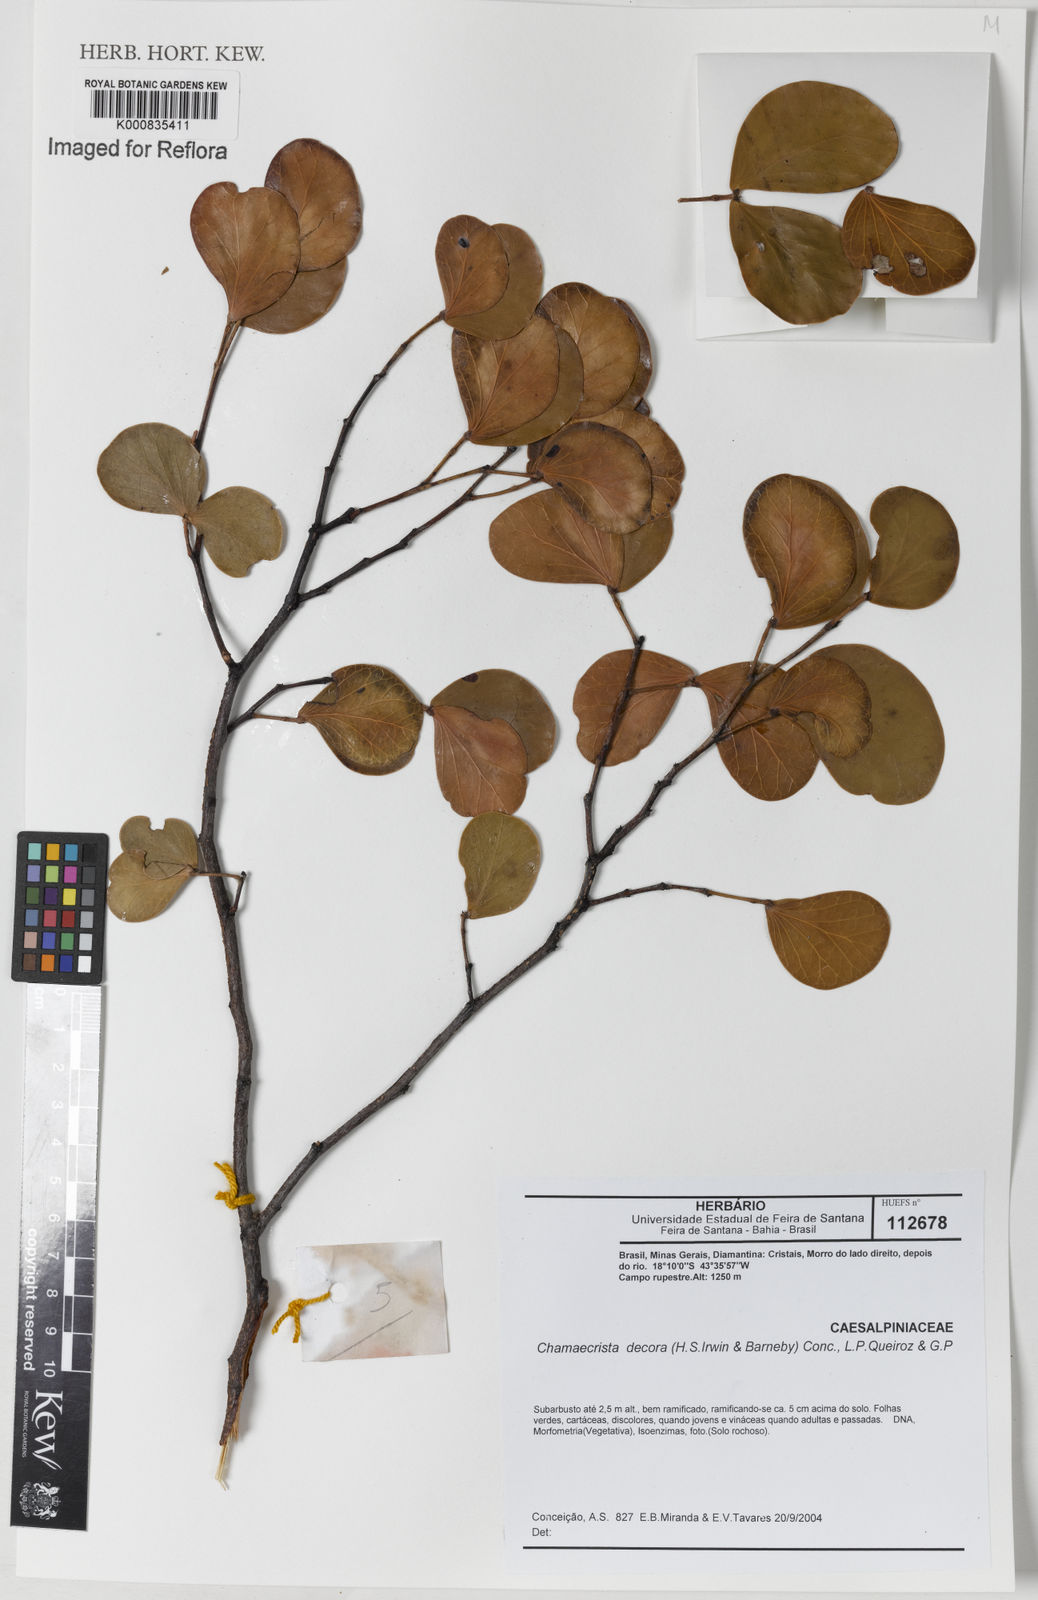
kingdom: Plantae
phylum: Tracheophyta
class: Magnoliopsida
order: Fabales
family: Fabaceae
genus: Chamaecrista
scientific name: Chamaecrista decora
